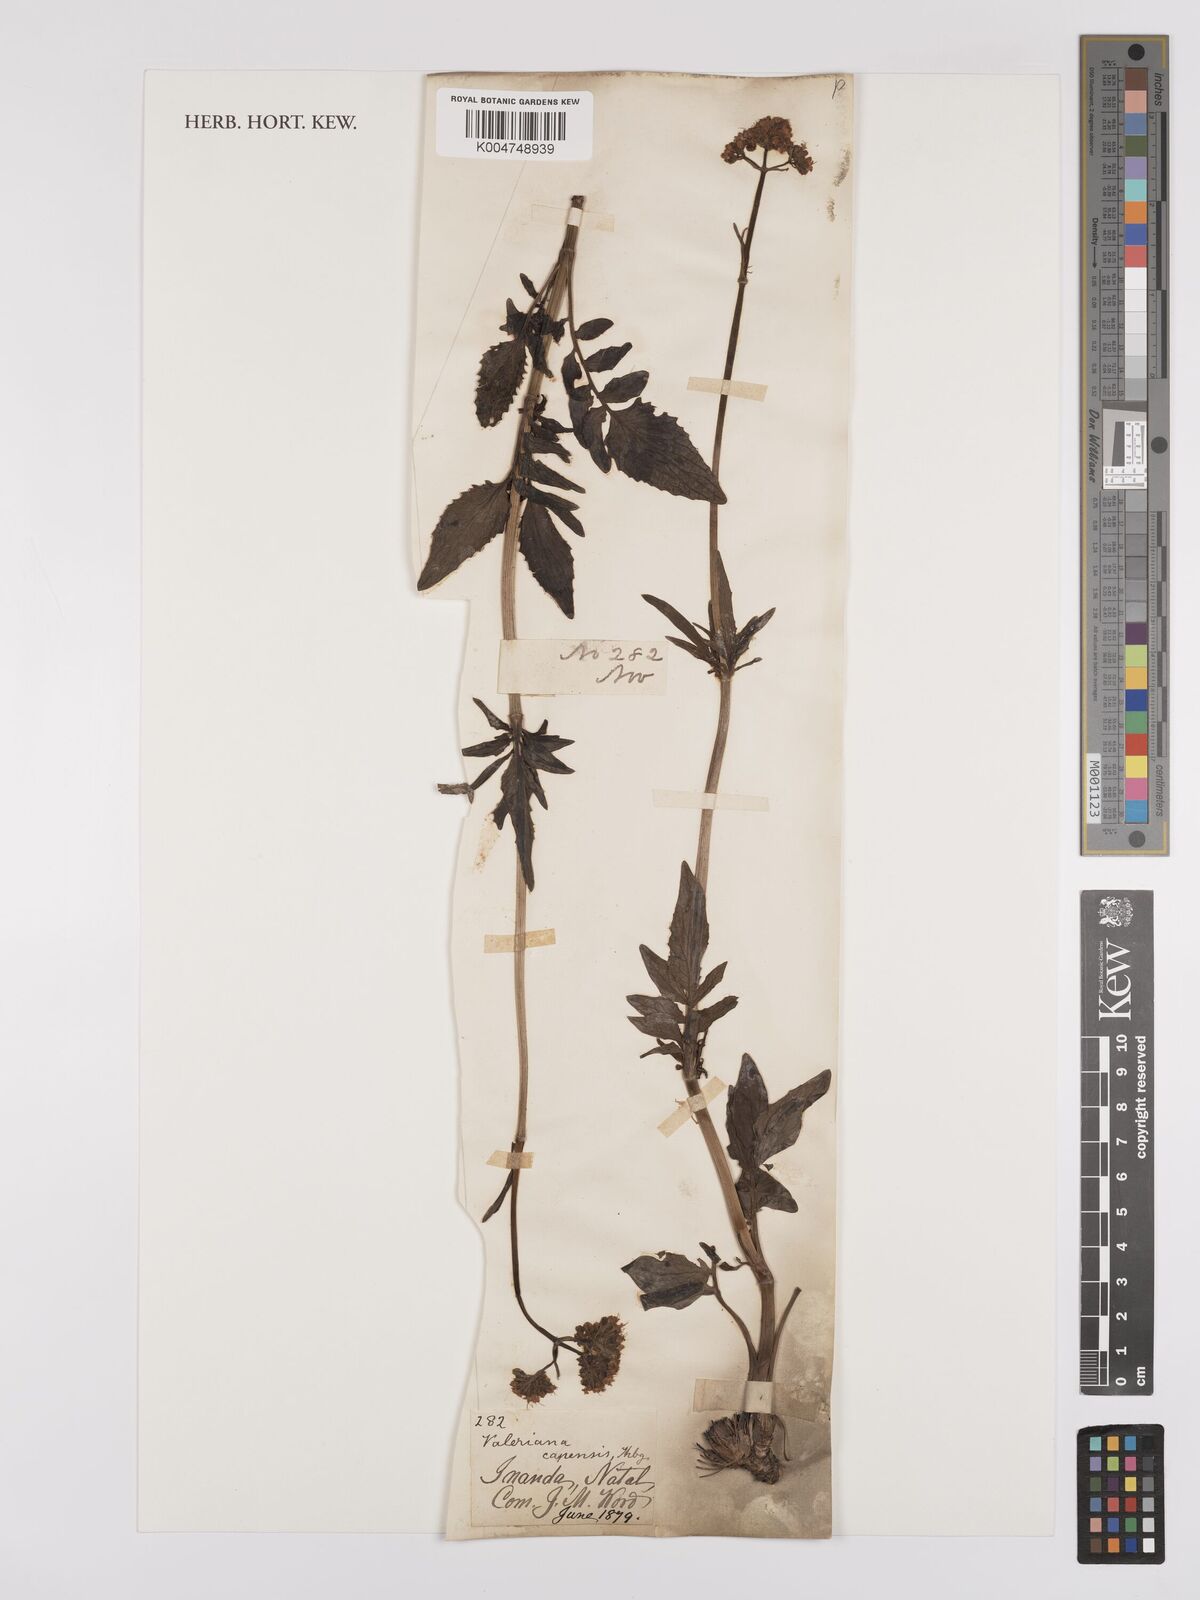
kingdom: Plantae
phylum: Tracheophyta
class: Magnoliopsida
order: Dipsacales
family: Caprifoliaceae
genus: Valeriana
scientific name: Valeriana capensis
